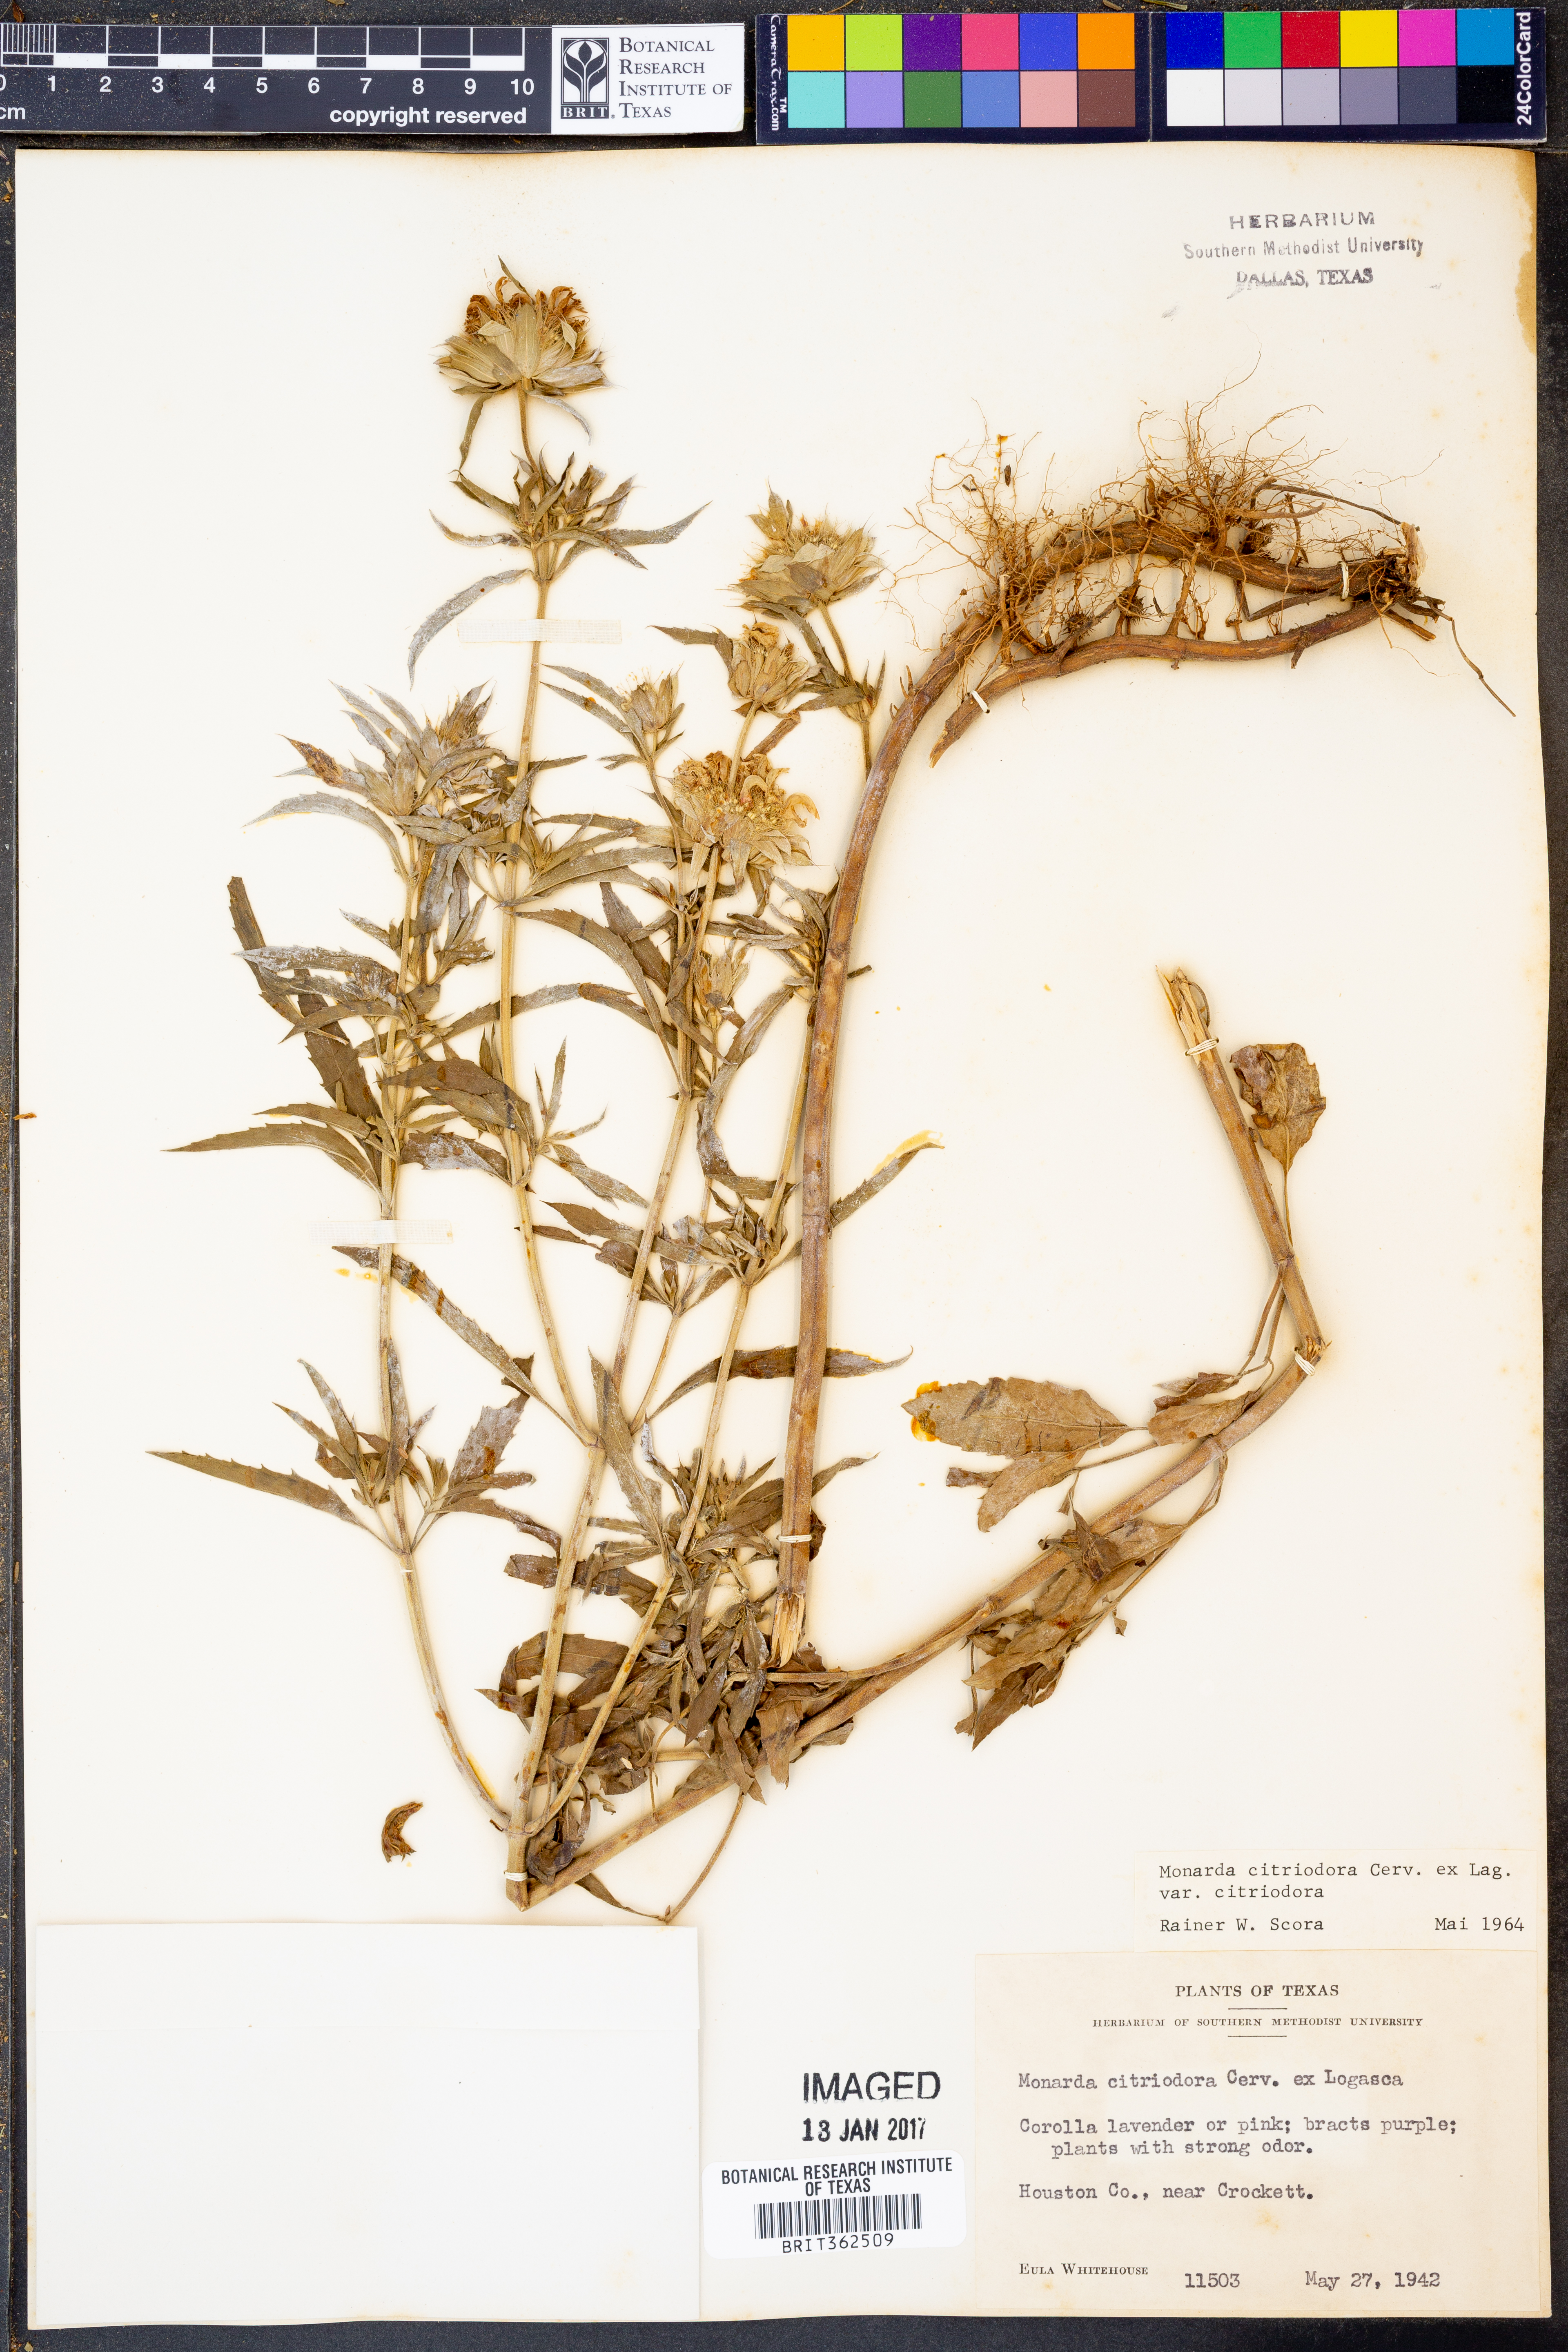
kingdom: Plantae
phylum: Tracheophyta
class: Magnoliopsida
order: Lamiales
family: Lamiaceae
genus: Monarda
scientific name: Monarda citriodora
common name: Lemon beebalm
